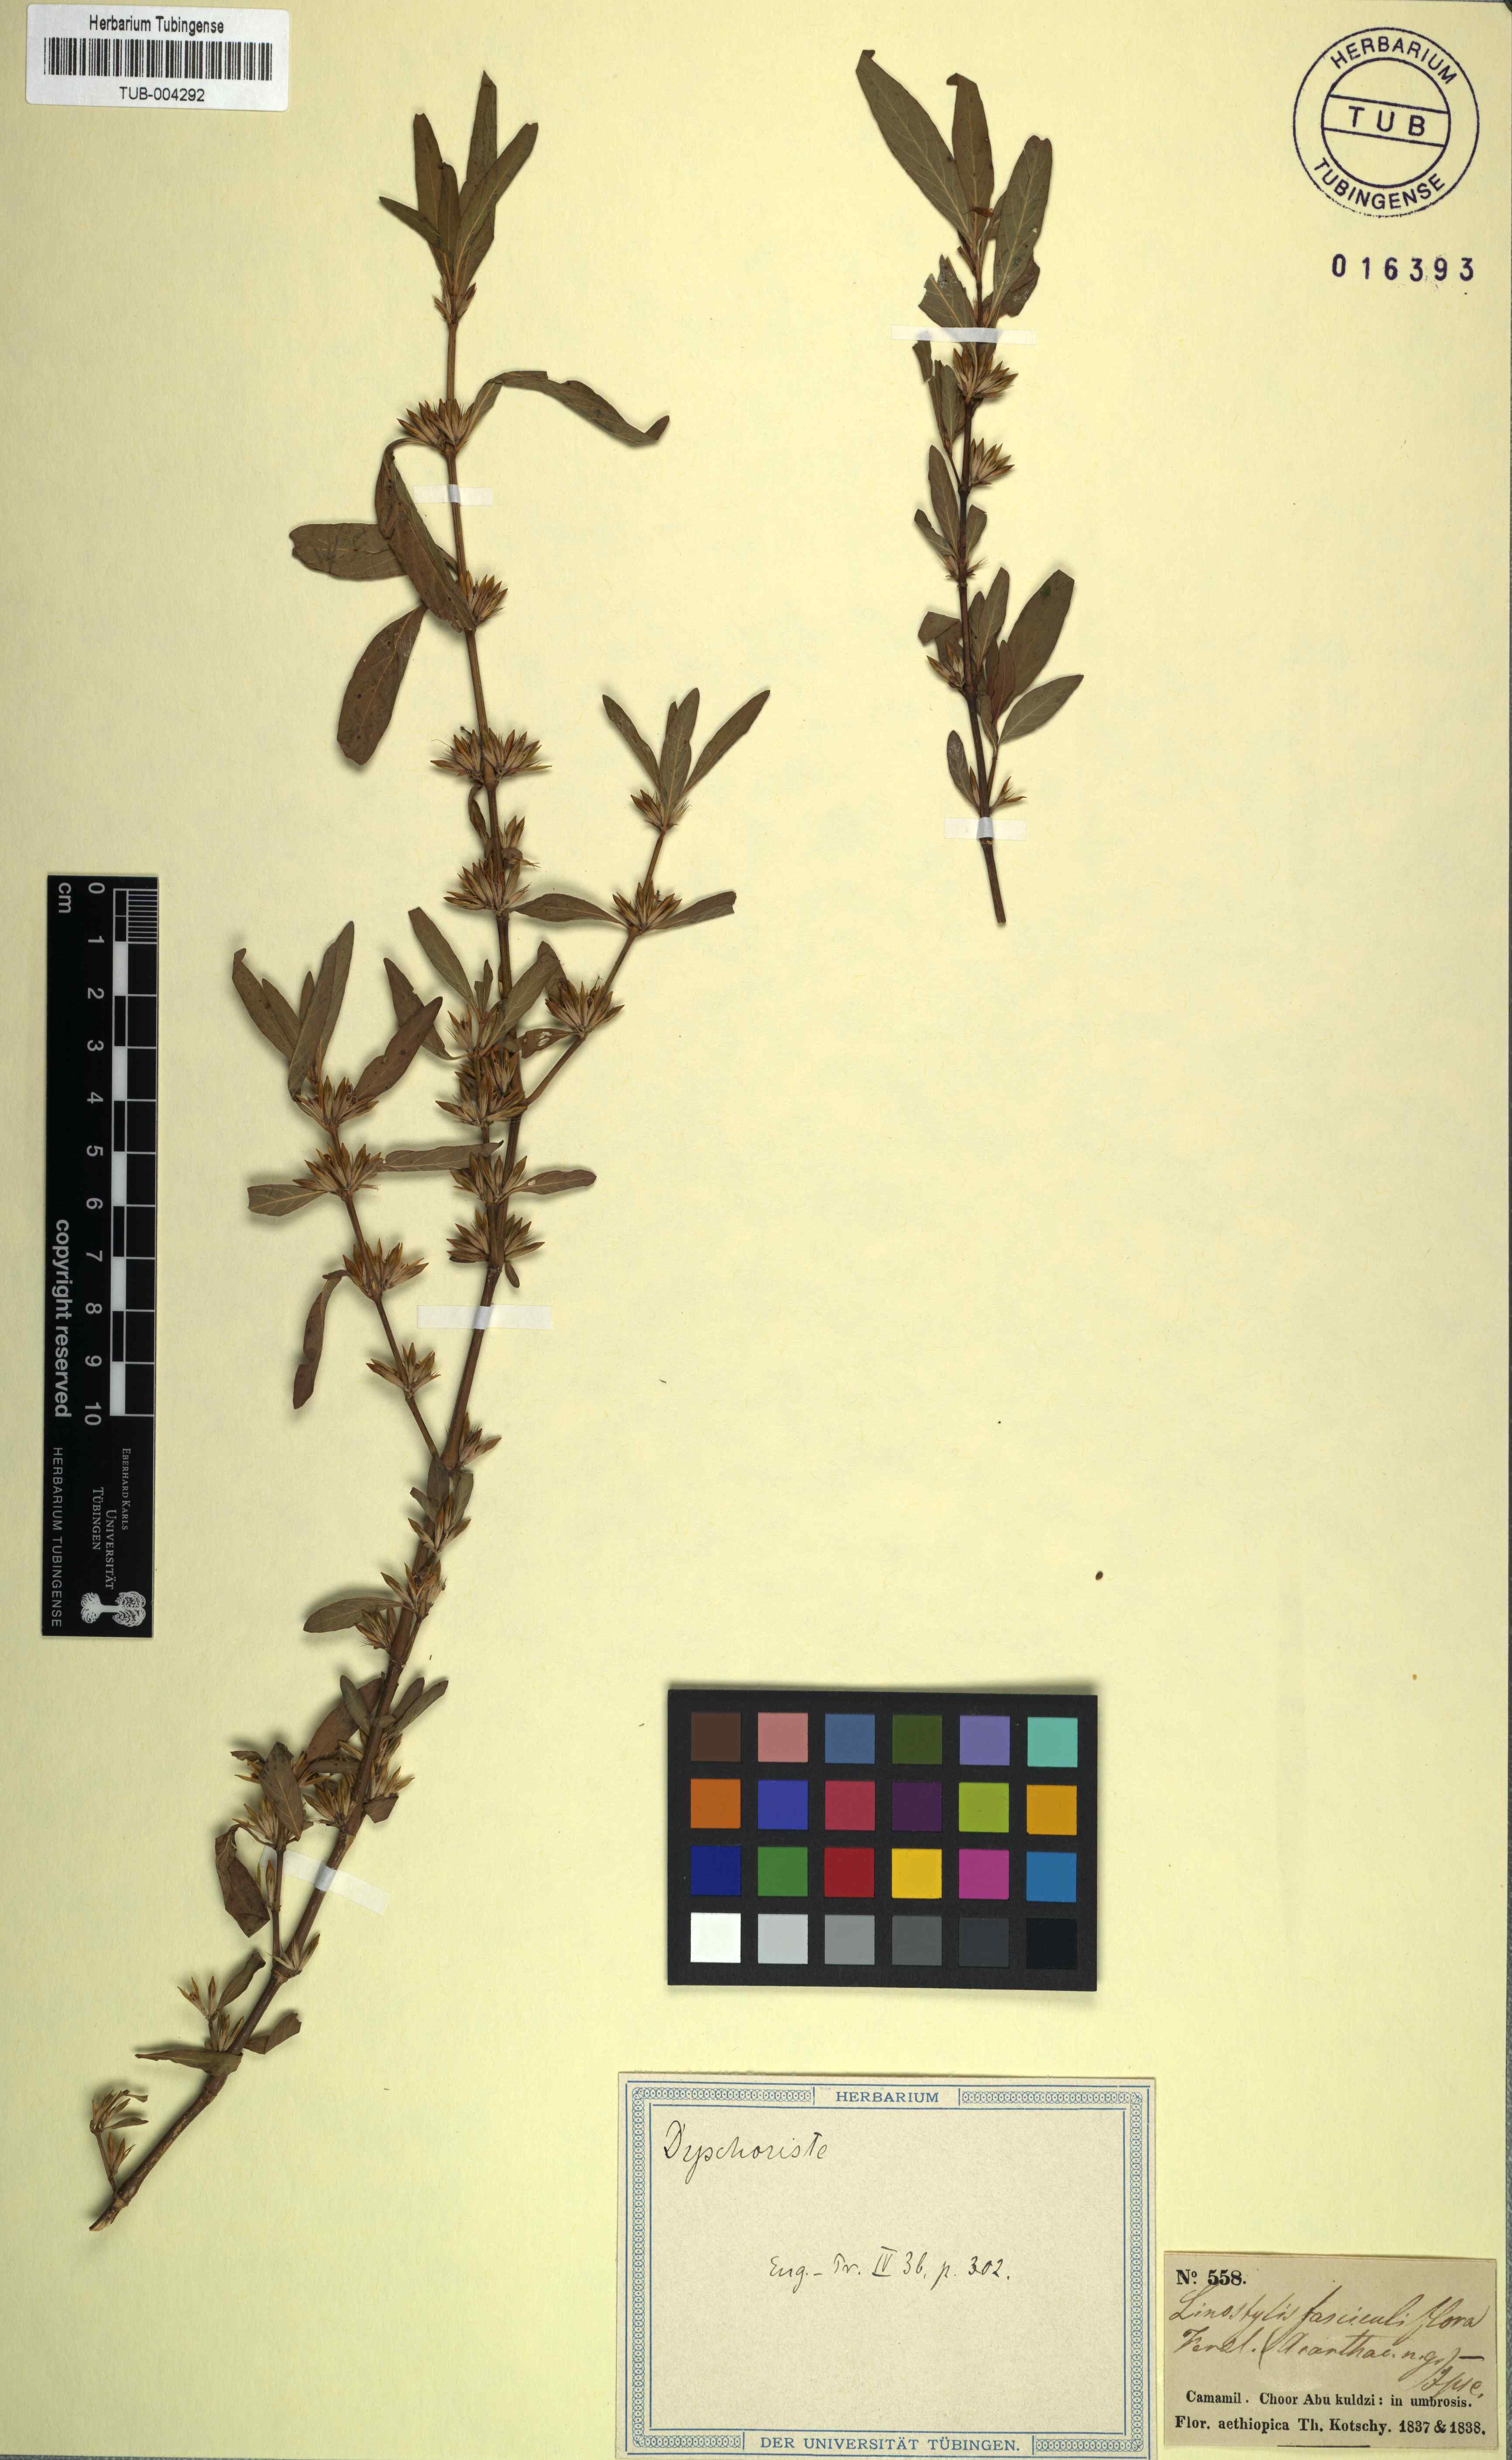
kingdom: Plantae
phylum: Tracheophyta
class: Magnoliopsida
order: Lamiales
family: Acanthaceae
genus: Dyschoriste
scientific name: Dyschoriste
